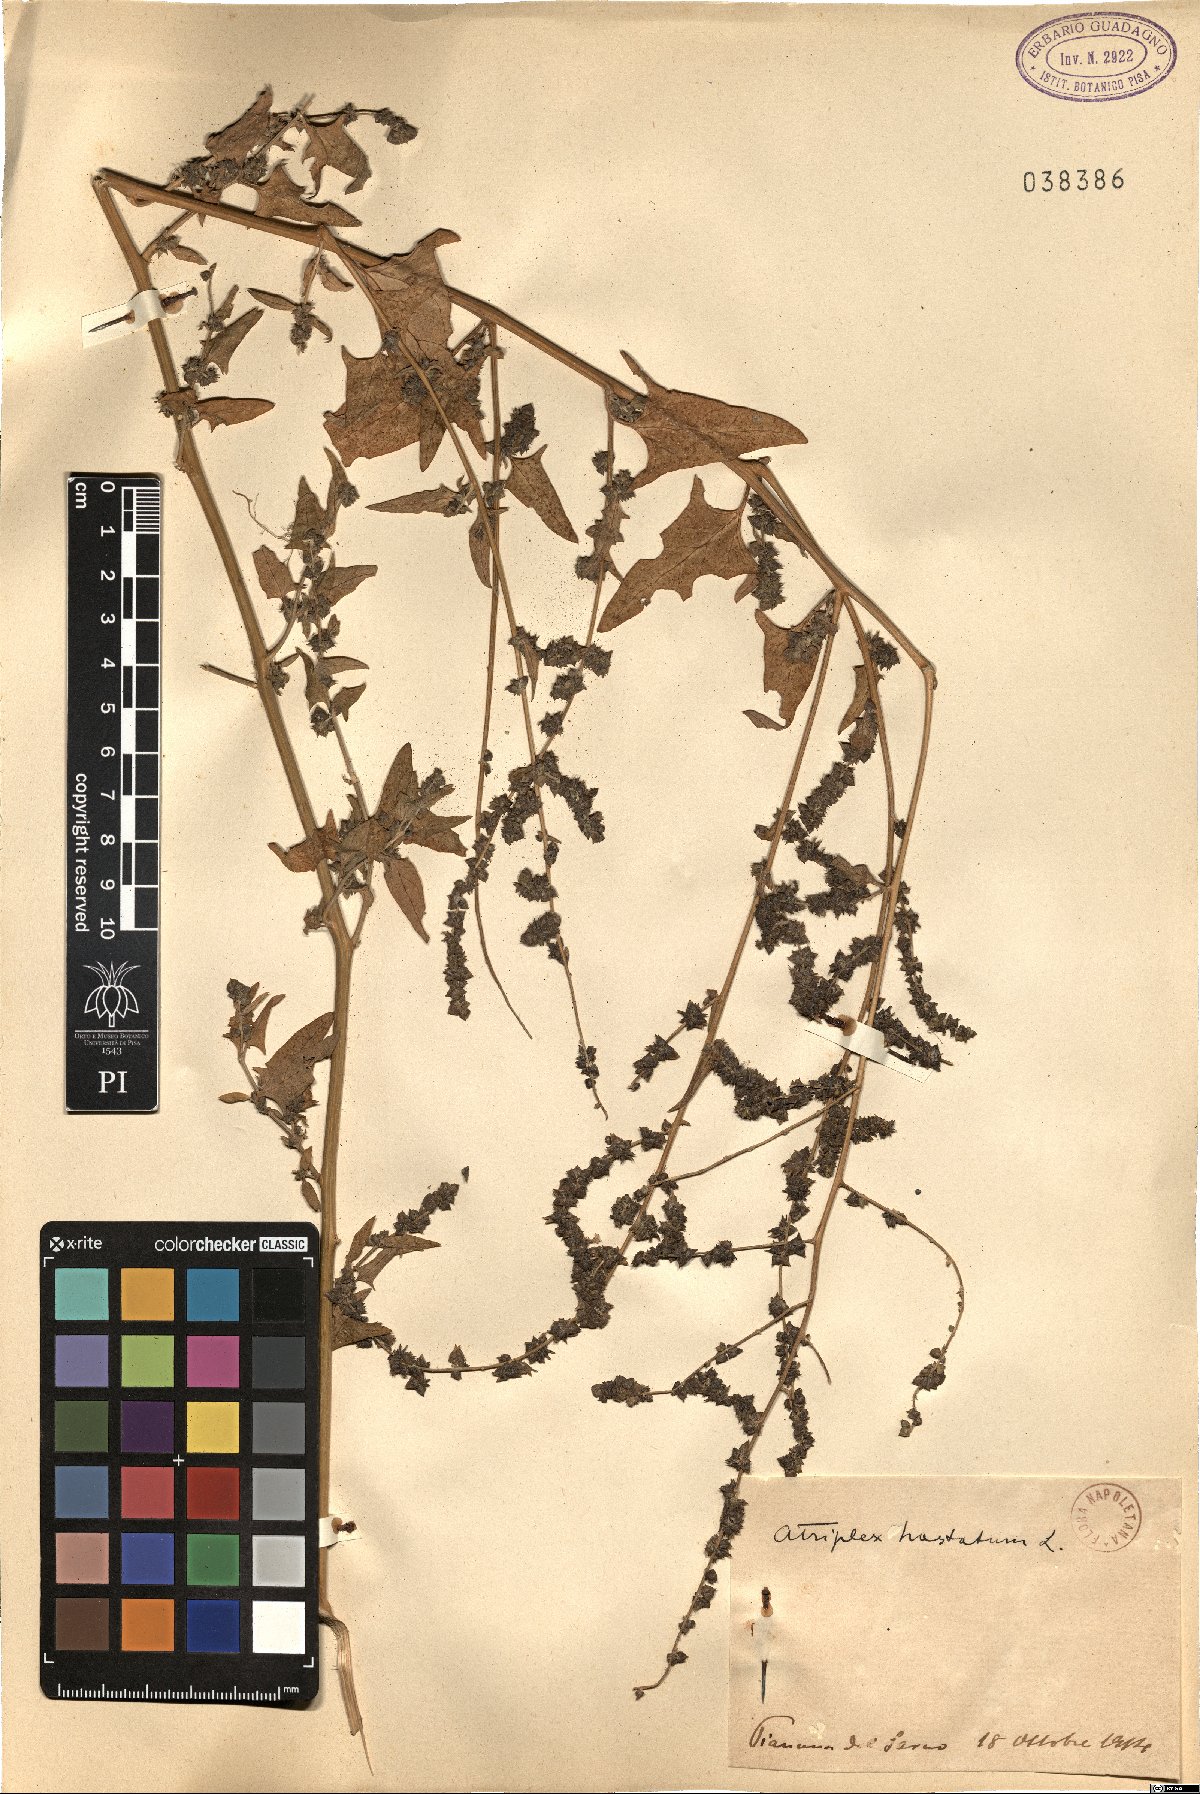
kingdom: Plantae
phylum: Tracheophyta
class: Magnoliopsida
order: Caryophyllales
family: Amaranthaceae
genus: Atriplex
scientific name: Atriplex calotheca
